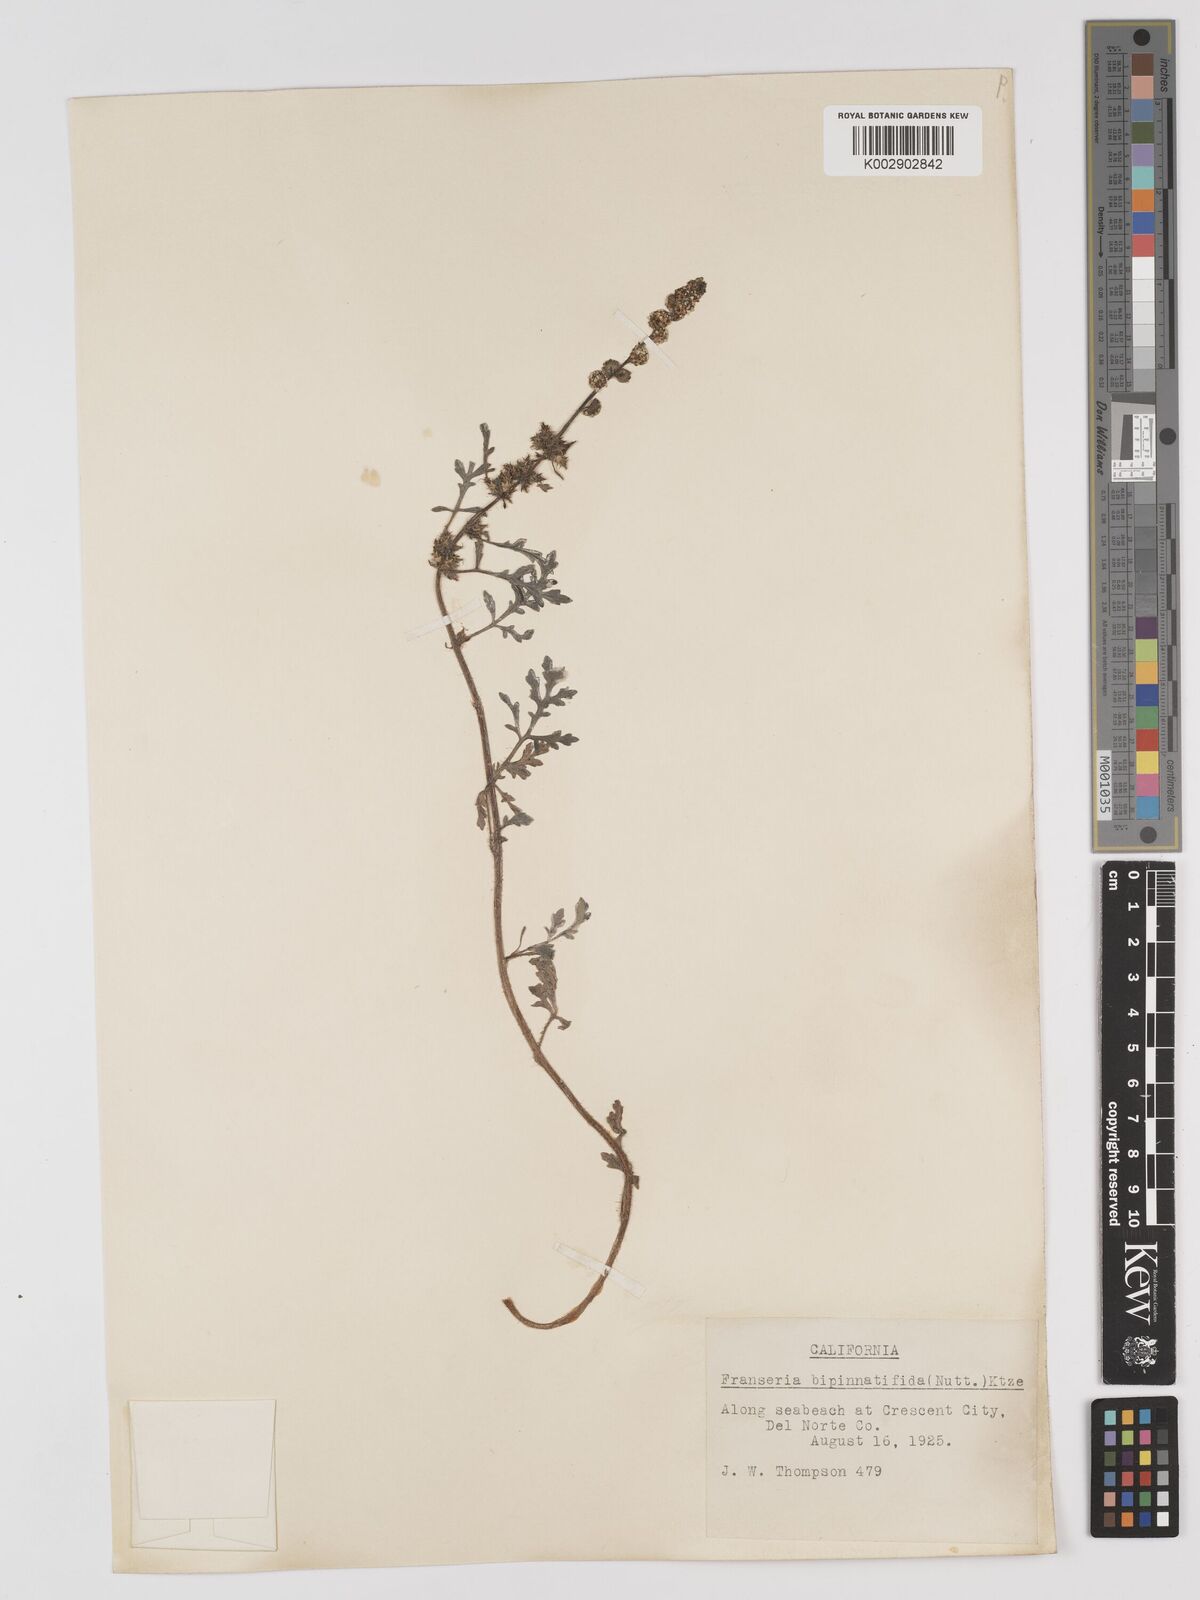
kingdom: Plantae
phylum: Tracheophyta
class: Magnoliopsida
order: Asterales
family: Asteraceae
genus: Ambrosia
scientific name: Ambrosia camphorata
